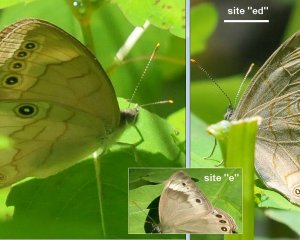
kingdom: Animalia
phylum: Arthropoda
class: Insecta
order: Lepidoptera
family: Nymphalidae
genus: Lethe
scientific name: Lethe eurydice
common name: Appalachian Eyed Brown
